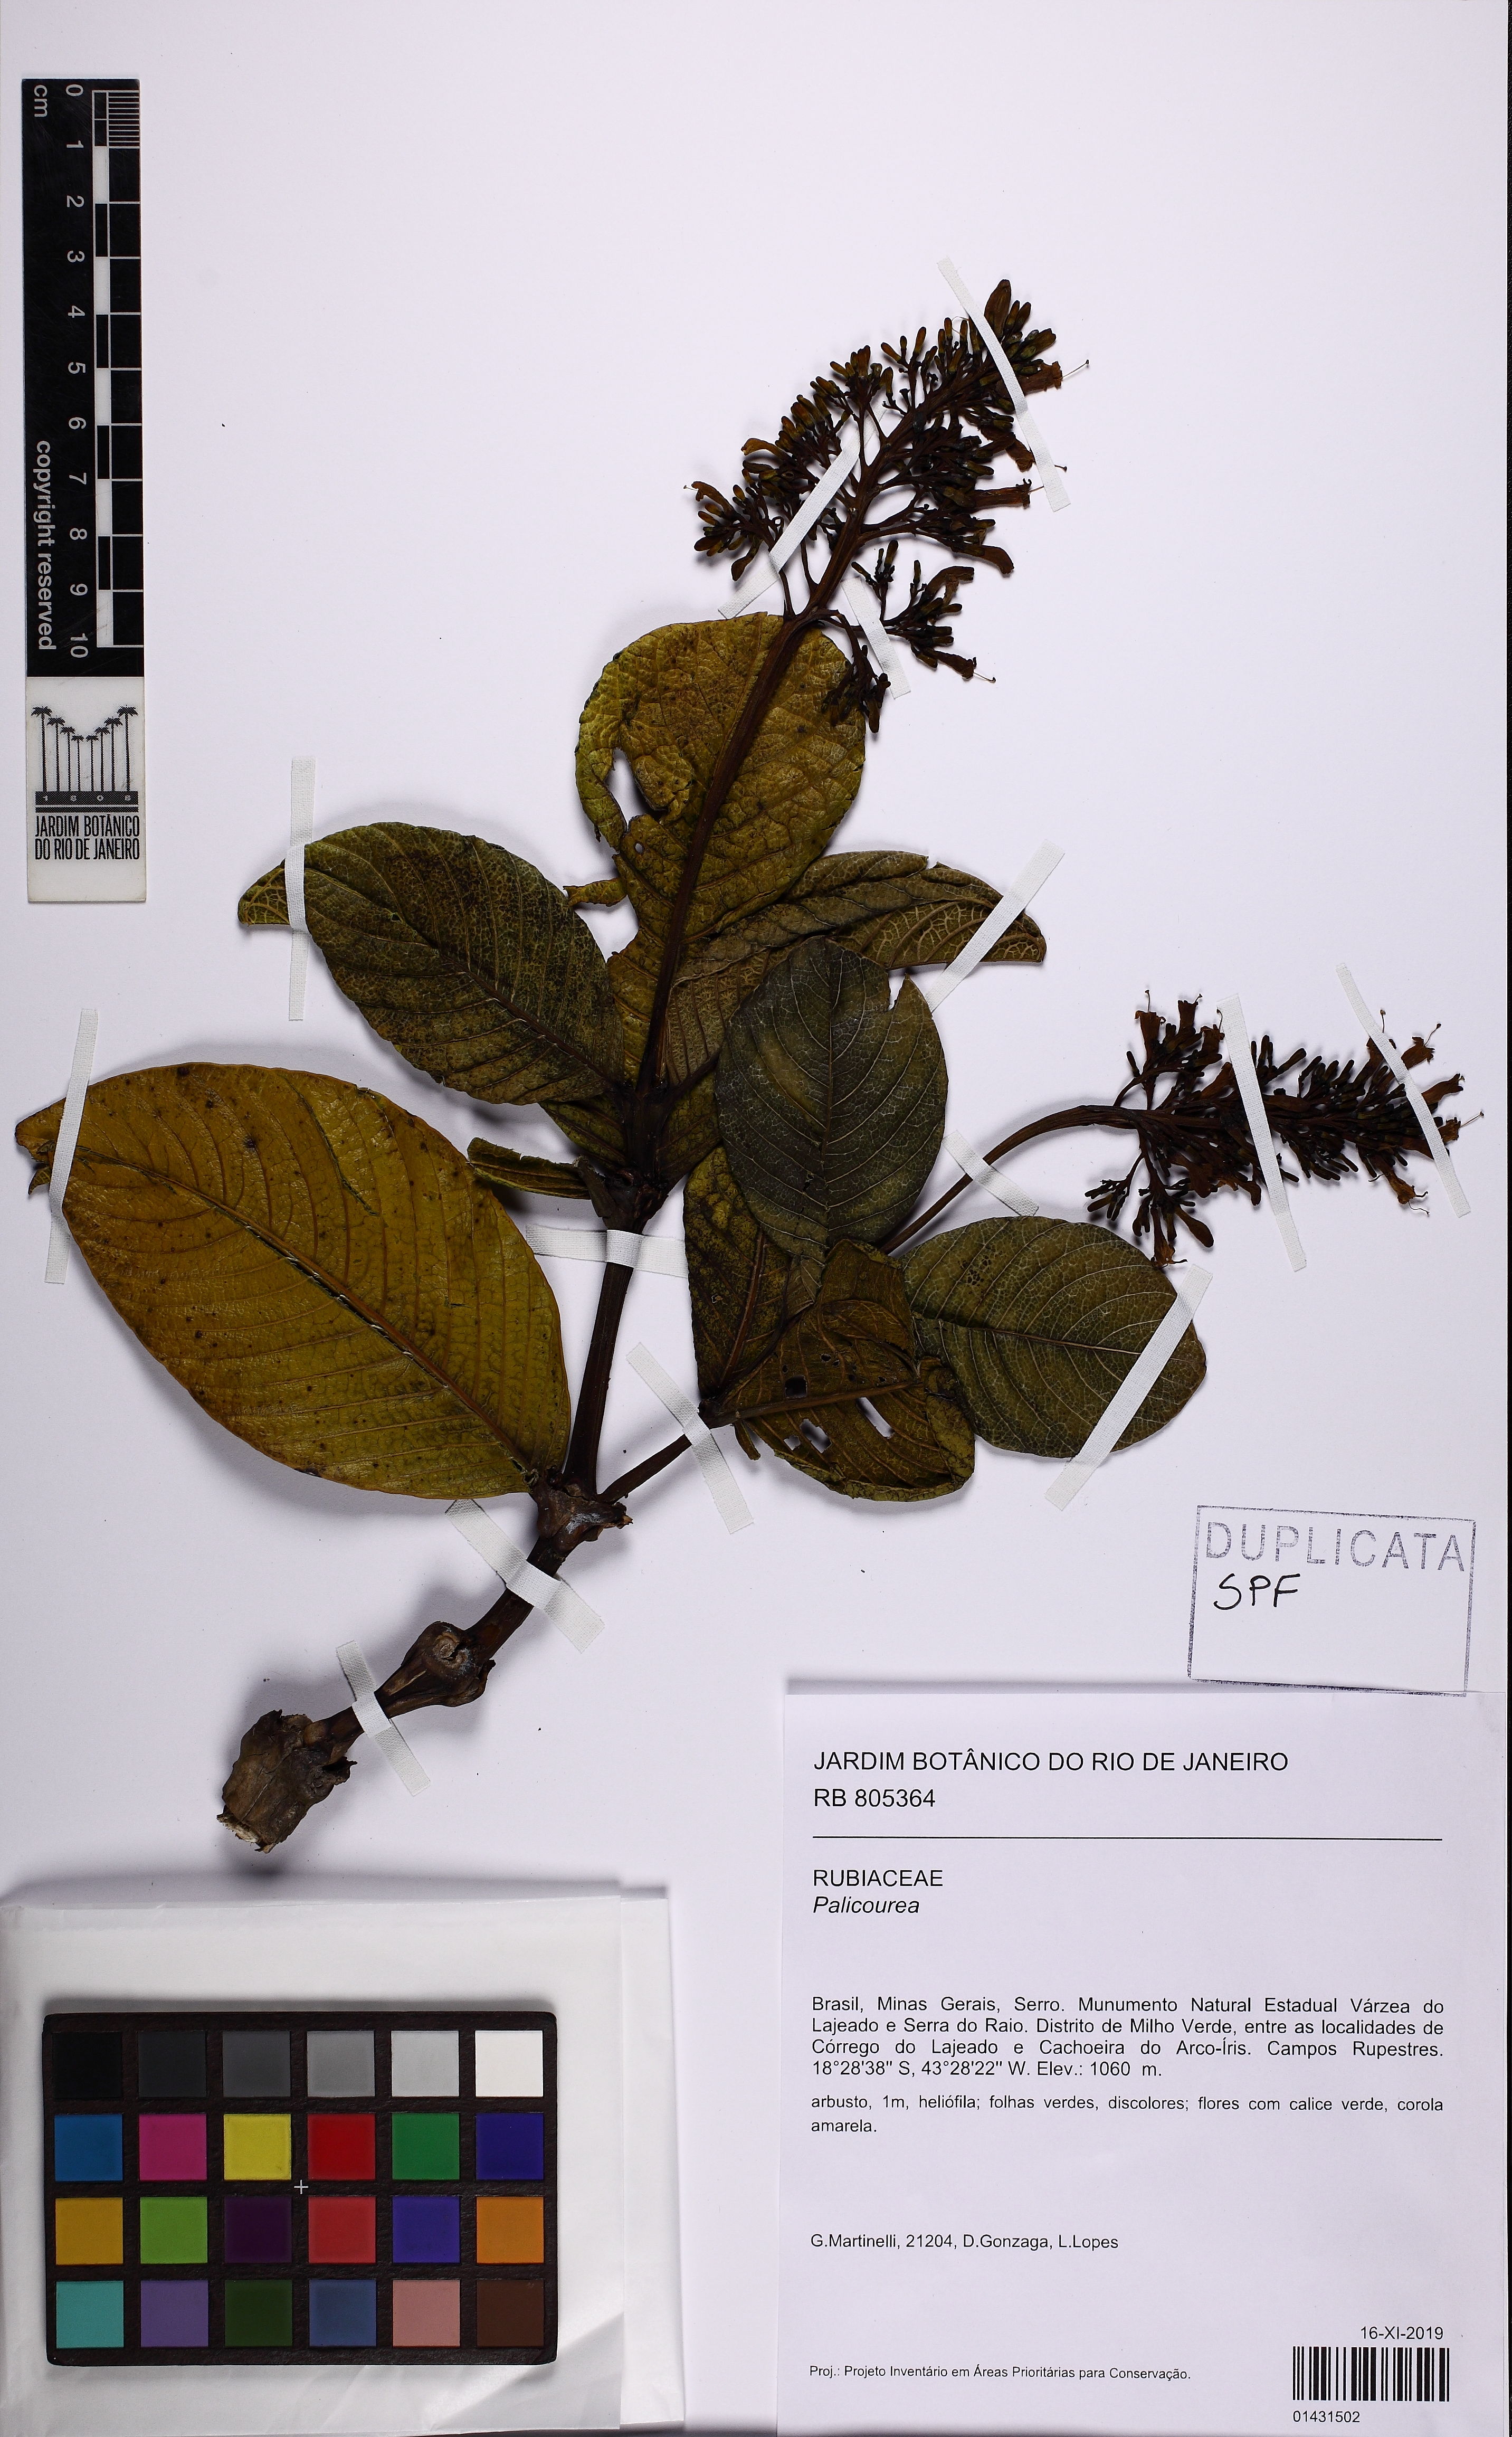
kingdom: Plantae
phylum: Tracheophyta
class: Magnoliopsida
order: Gentianales
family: Rubiaceae
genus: Palicourea
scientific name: Palicourea
